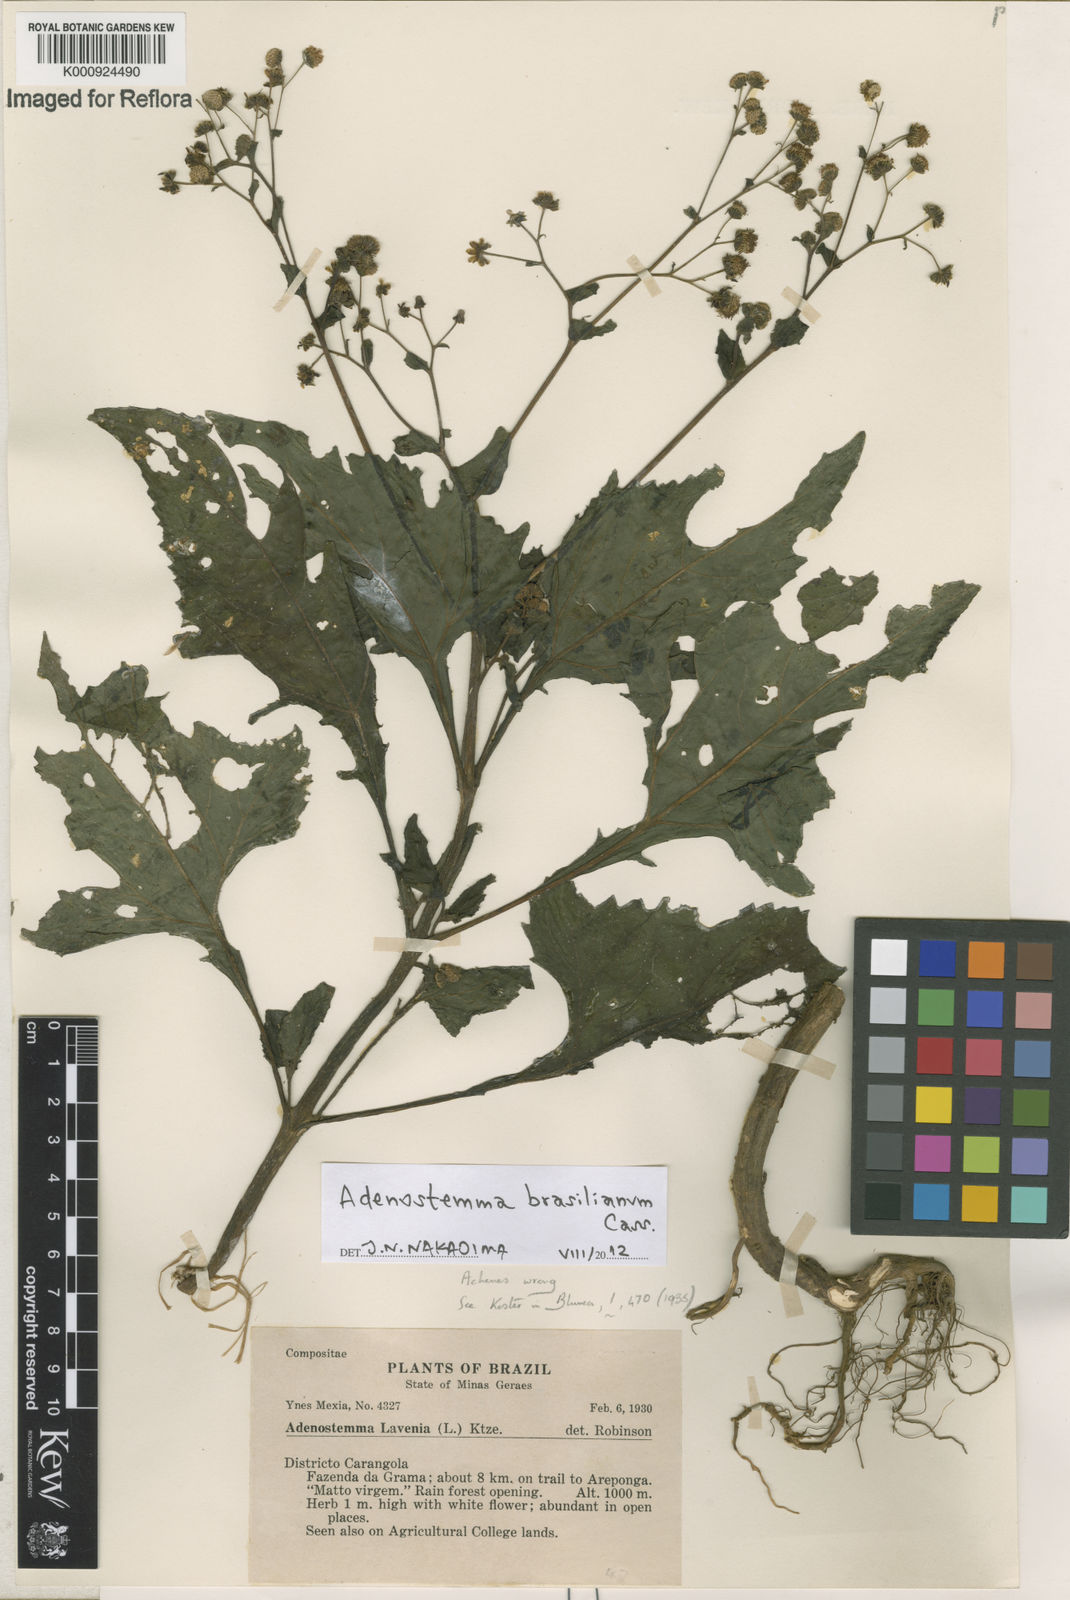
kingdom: Plantae
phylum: Tracheophyta
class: Magnoliopsida
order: Asterales
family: Asteraceae
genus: Adenostemma
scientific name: Adenostemma
